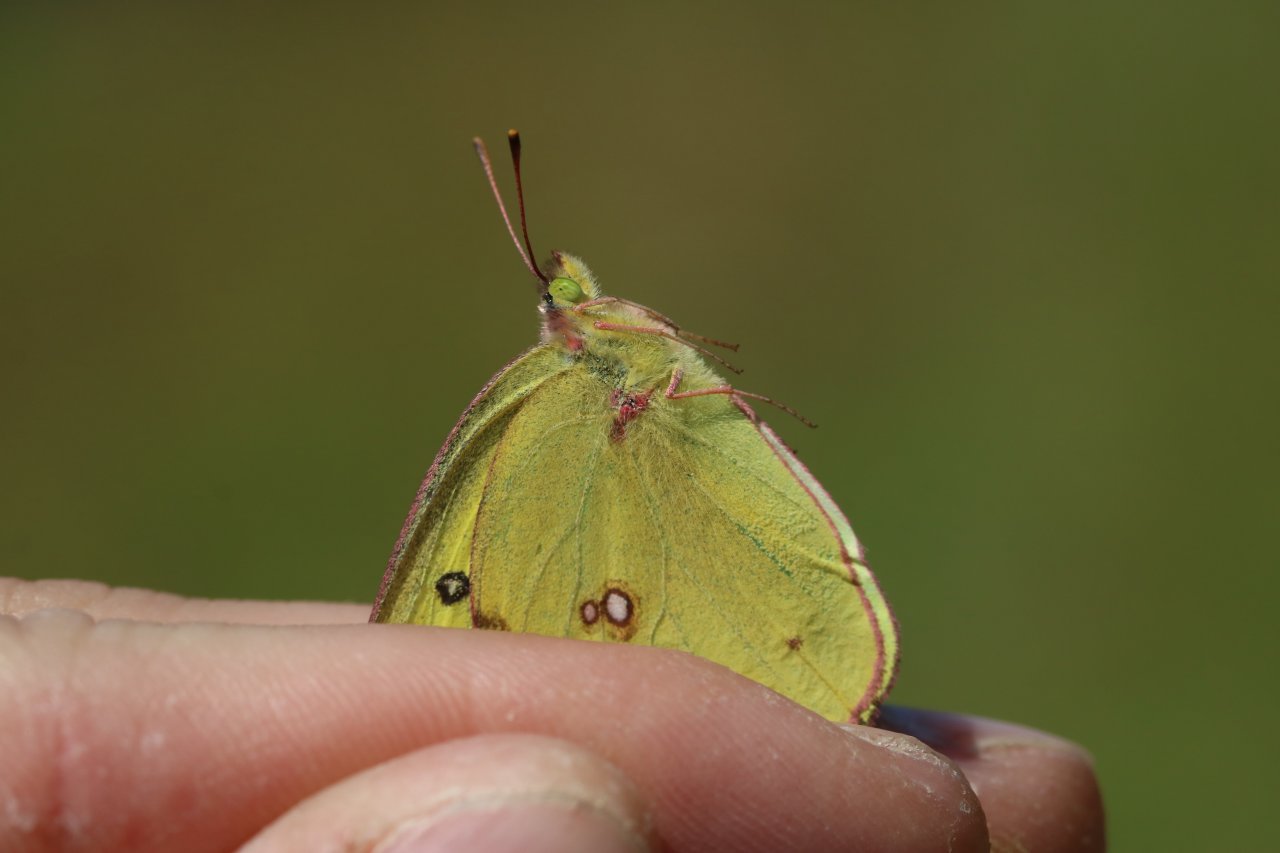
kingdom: Animalia
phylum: Arthropoda
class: Insecta
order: Lepidoptera
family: Pieridae
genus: Colias
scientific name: Colias philodice
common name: Clouded Sulphur
